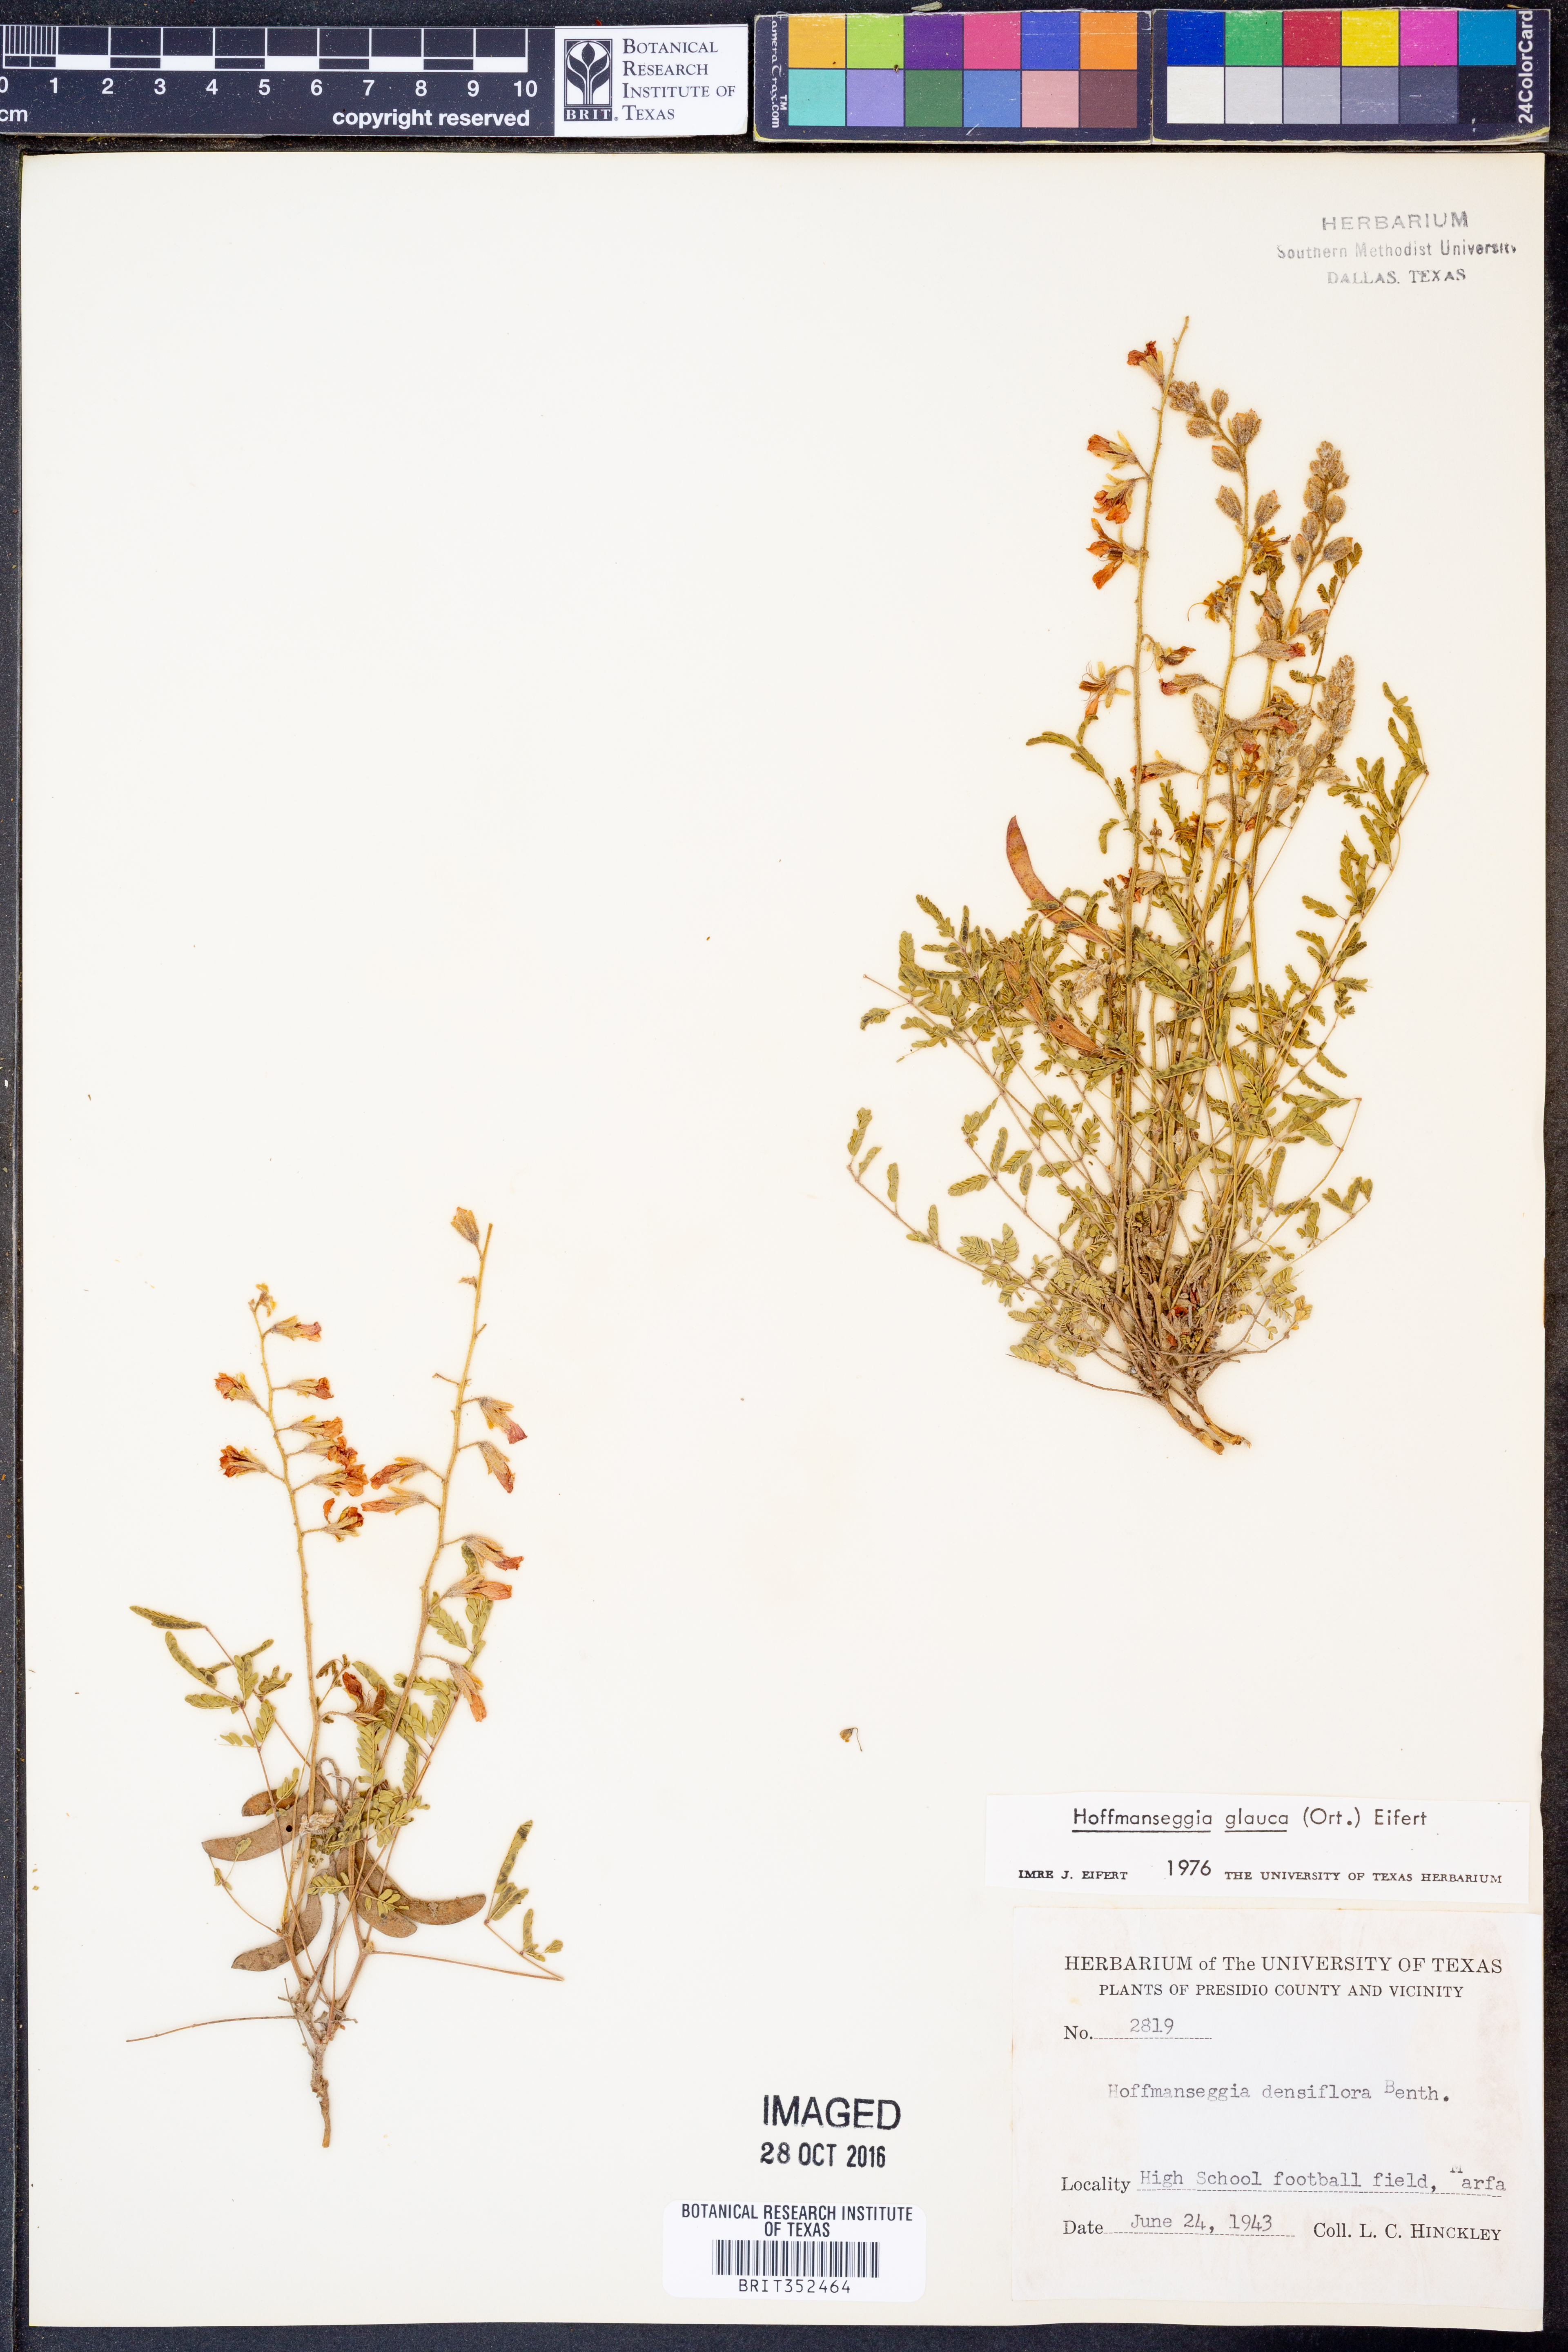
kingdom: Plantae
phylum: Tracheophyta
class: Magnoliopsida
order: Fabales
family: Fabaceae
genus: Hoffmannseggia
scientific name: Hoffmannseggia glauca
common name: Pignut
